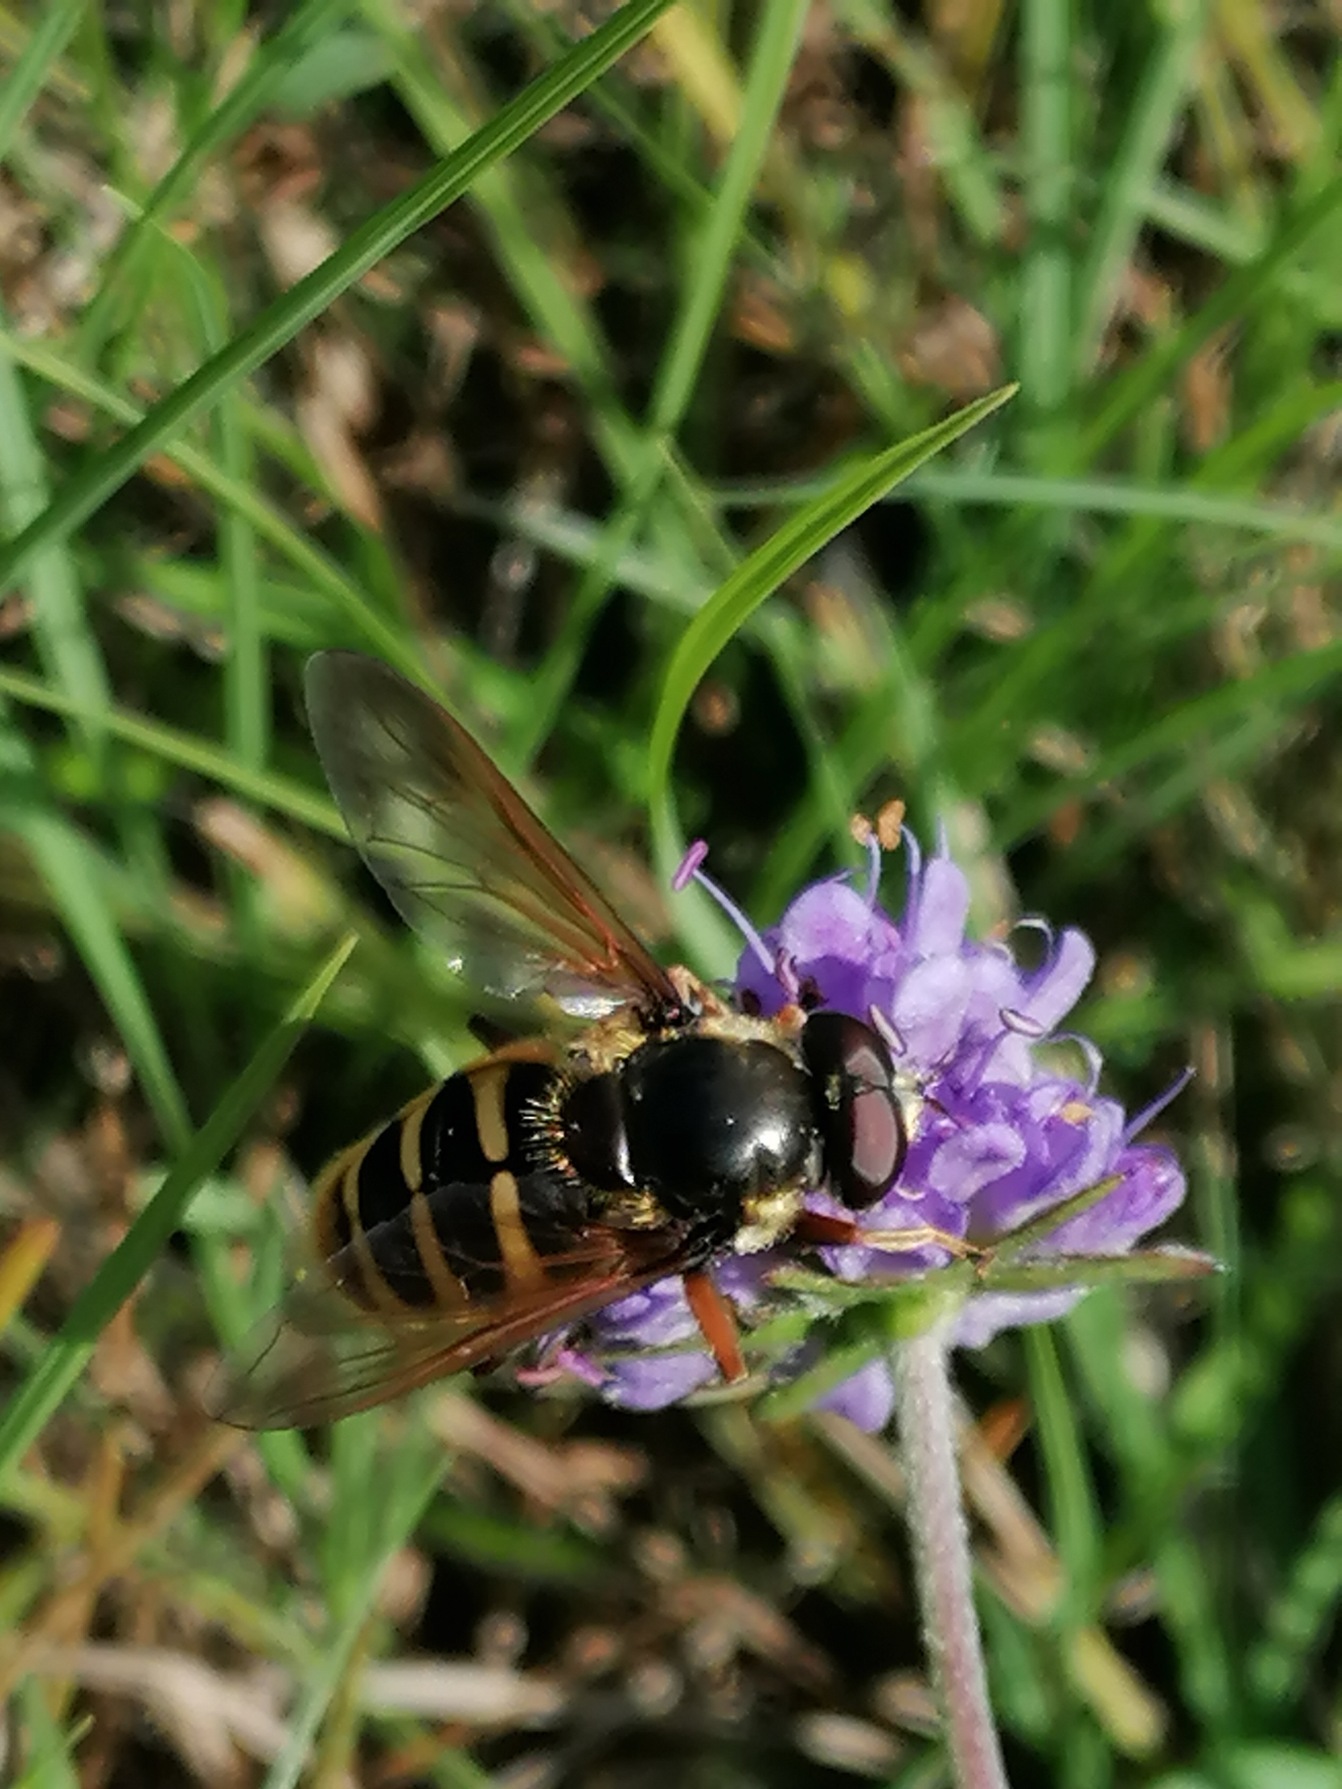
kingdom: Animalia
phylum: Arthropoda
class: Insecta
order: Diptera
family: Syrphidae
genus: Sericomyia
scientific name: Sericomyia silentis
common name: Tørve-silkesvirreflue
